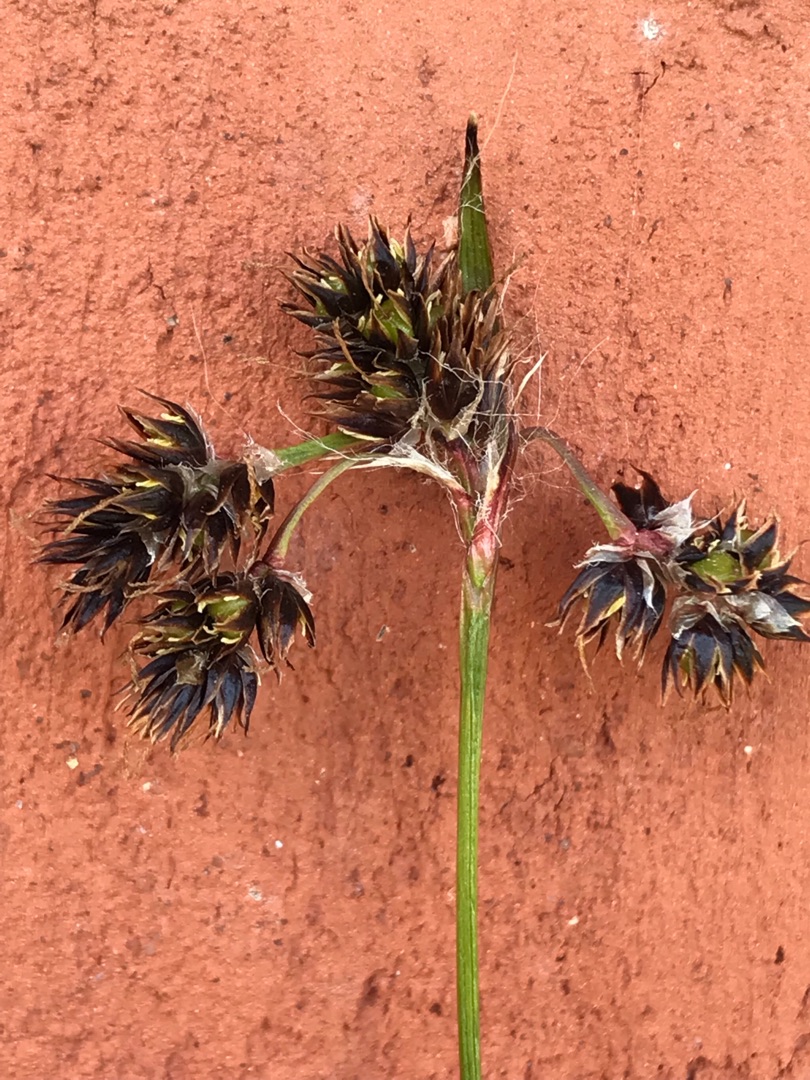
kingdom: Plantae
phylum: Tracheophyta
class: Liliopsida
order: Poales
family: Juncaceae
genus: Luzula
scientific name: Luzula campestris
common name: Mark-frytle
